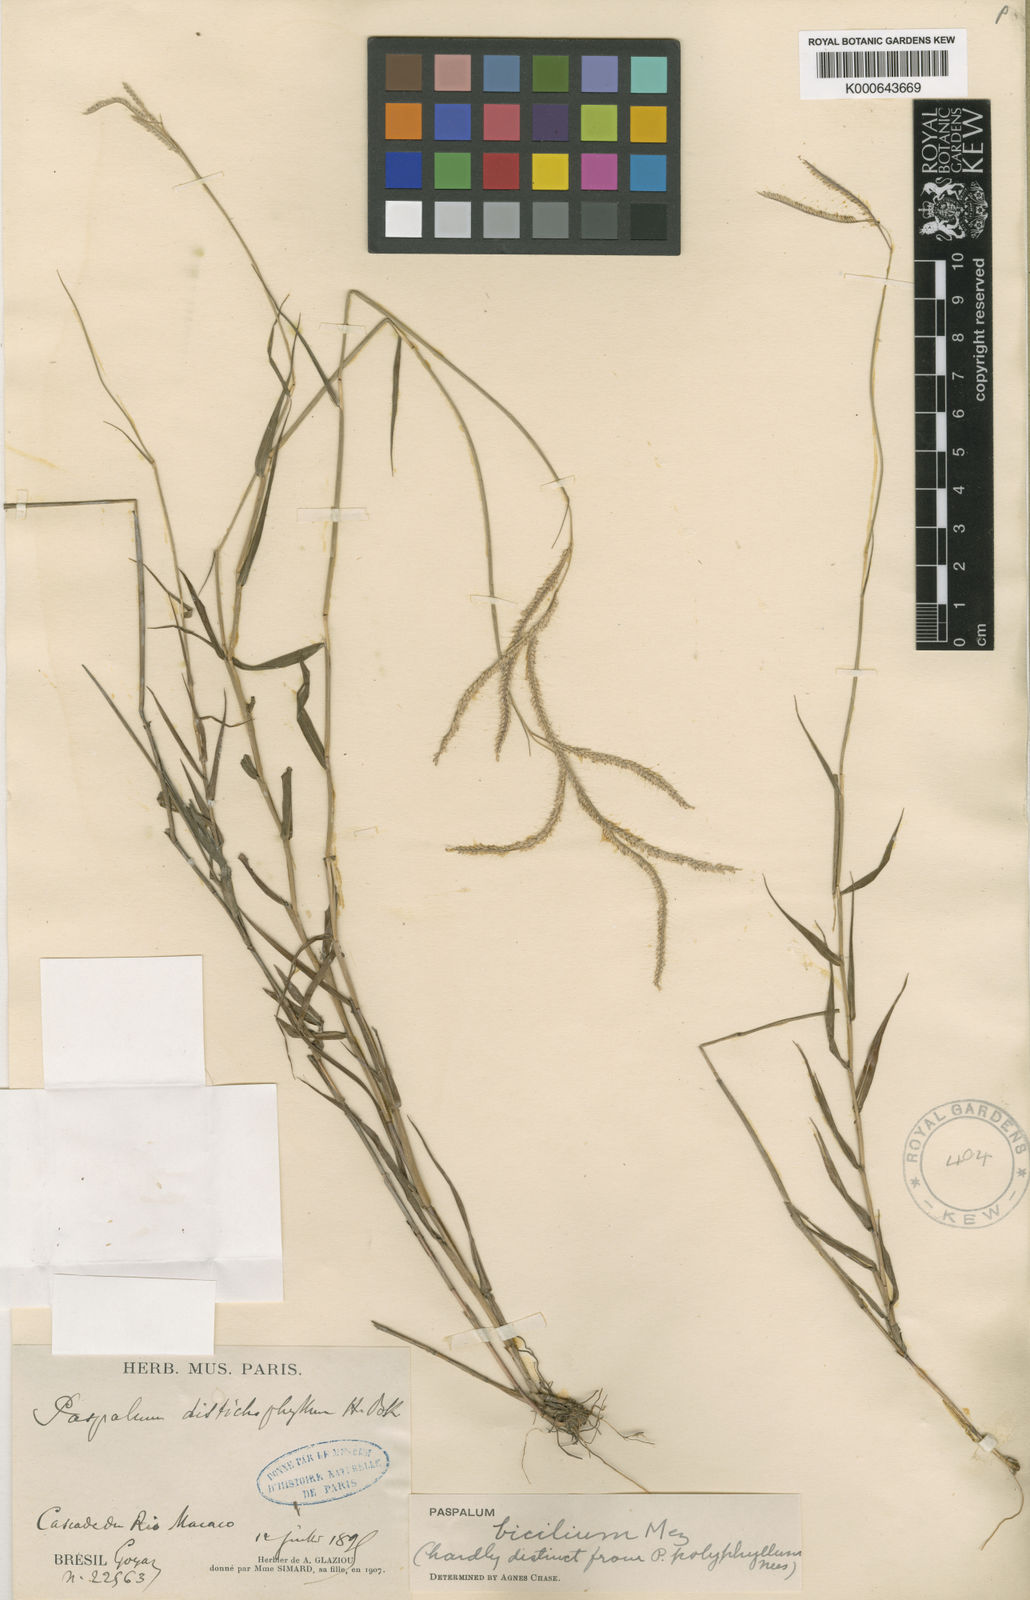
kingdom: Plantae
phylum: Tracheophyta
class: Liliopsida
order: Poales
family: Poaceae
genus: Paspalum
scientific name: Paspalum polyphyllum
